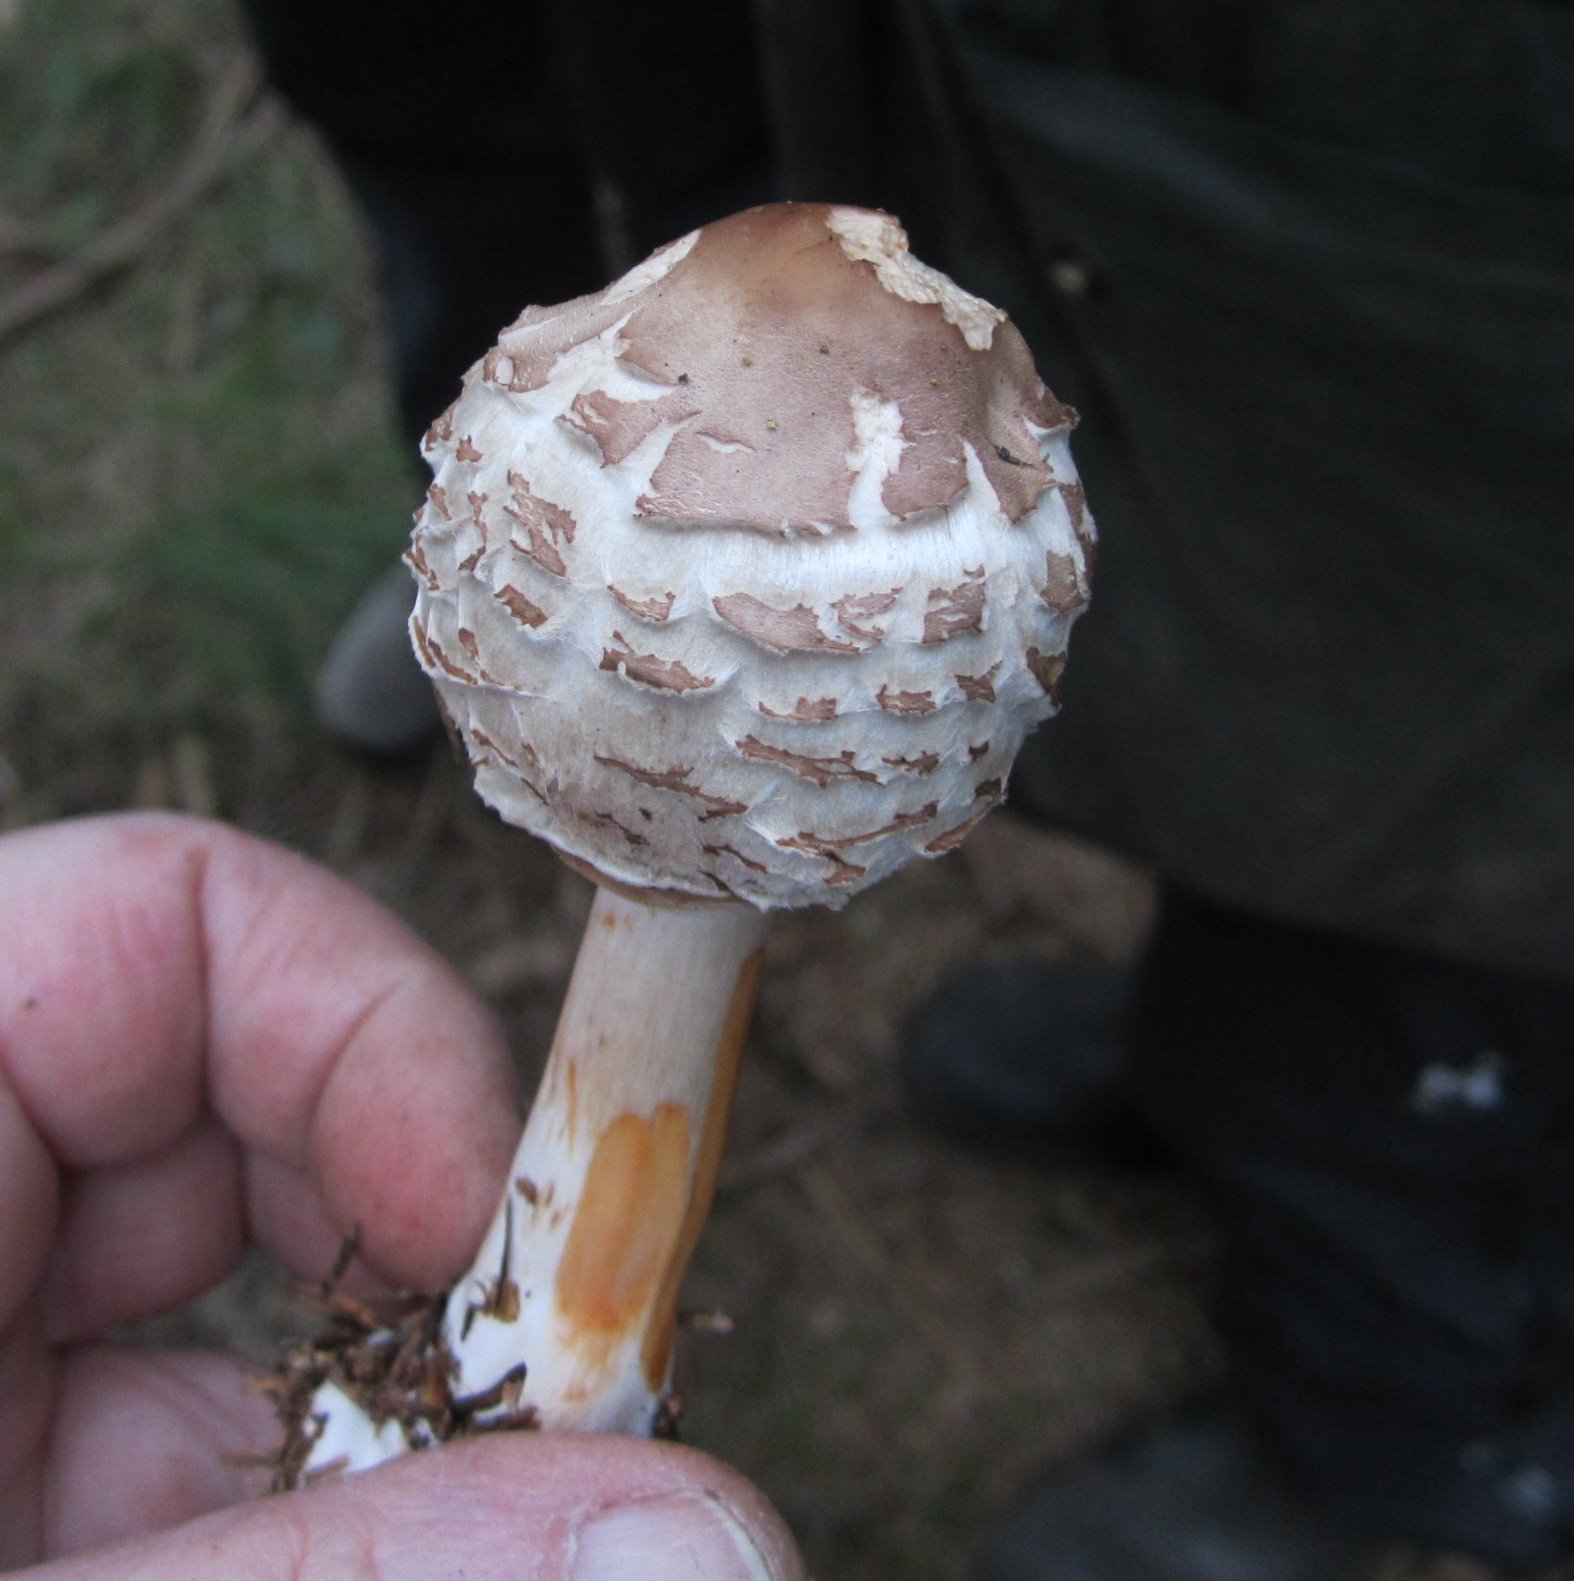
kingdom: Fungi
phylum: Basidiomycota
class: Agaricomycetes
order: Agaricales
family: Agaricaceae
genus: Chlorophyllum
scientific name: Chlorophyllum rhacodes
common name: ægte rabarberhat
